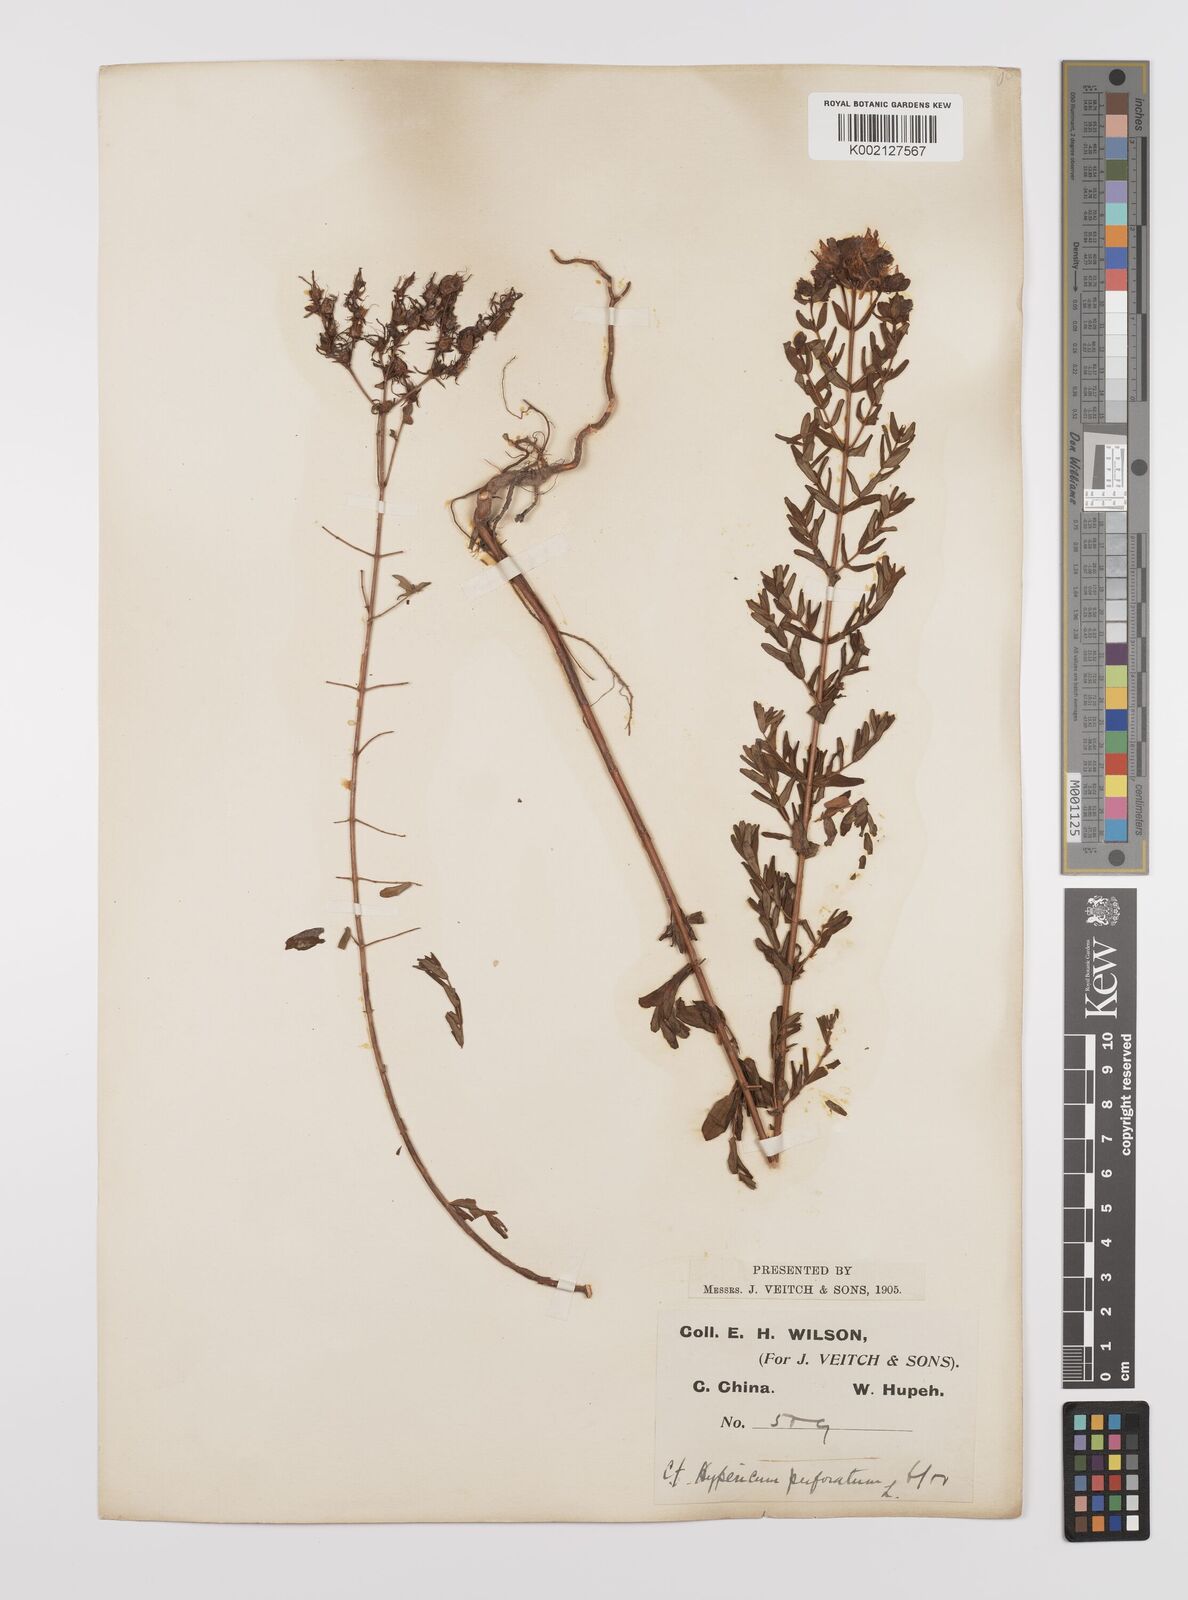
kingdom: Plantae
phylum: Tracheophyta
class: Magnoliopsida
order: Malpighiales
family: Hypericaceae
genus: Hypericum
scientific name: Hypericum perforatum
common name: Common st. johnswort
